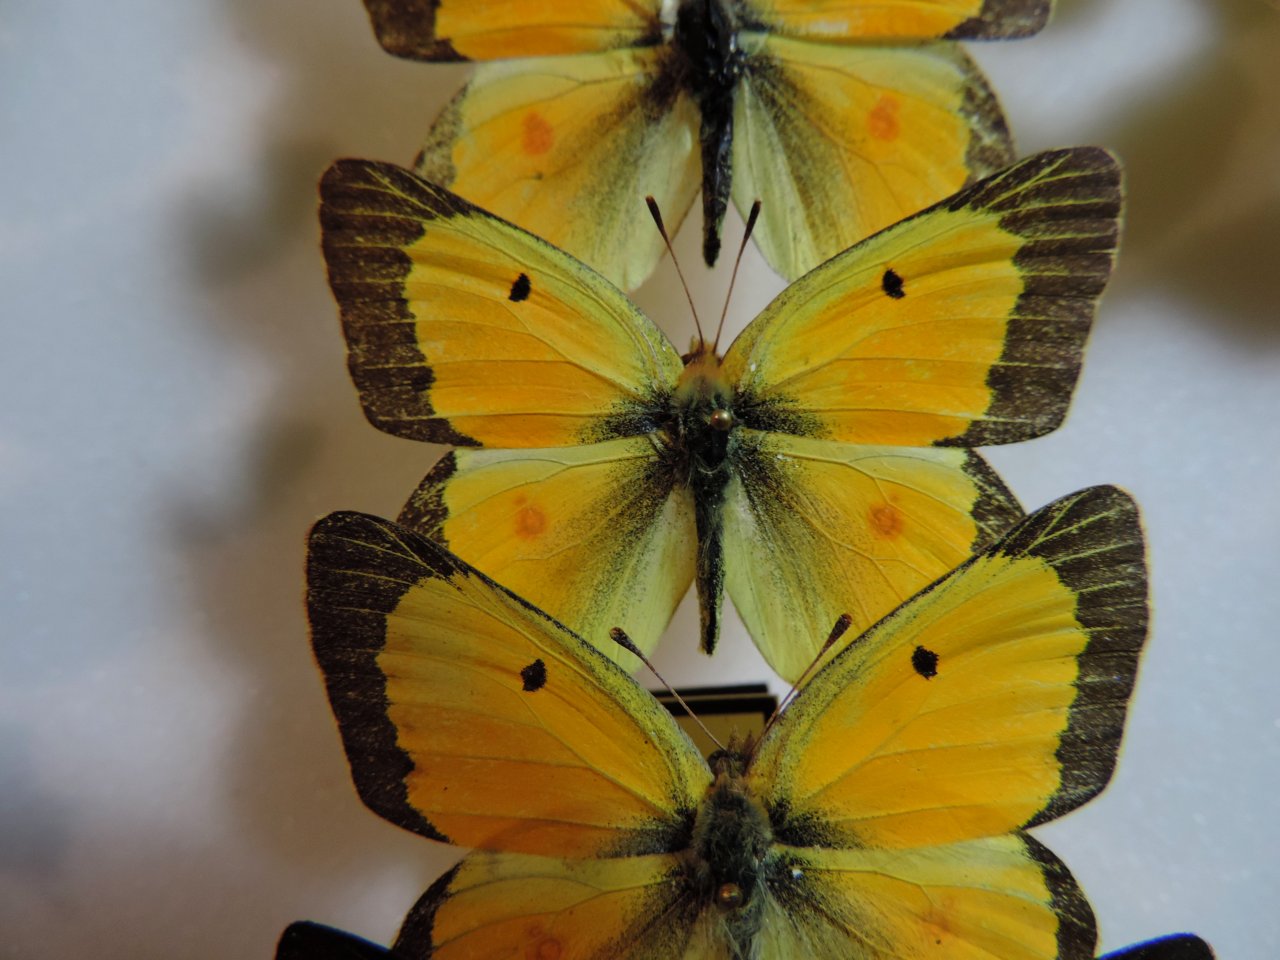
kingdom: Animalia
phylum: Arthropoda
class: Insecta
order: Lepidoptera
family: Pieridae
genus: Colias
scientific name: Colias eurytheme
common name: Orange Sulphur
